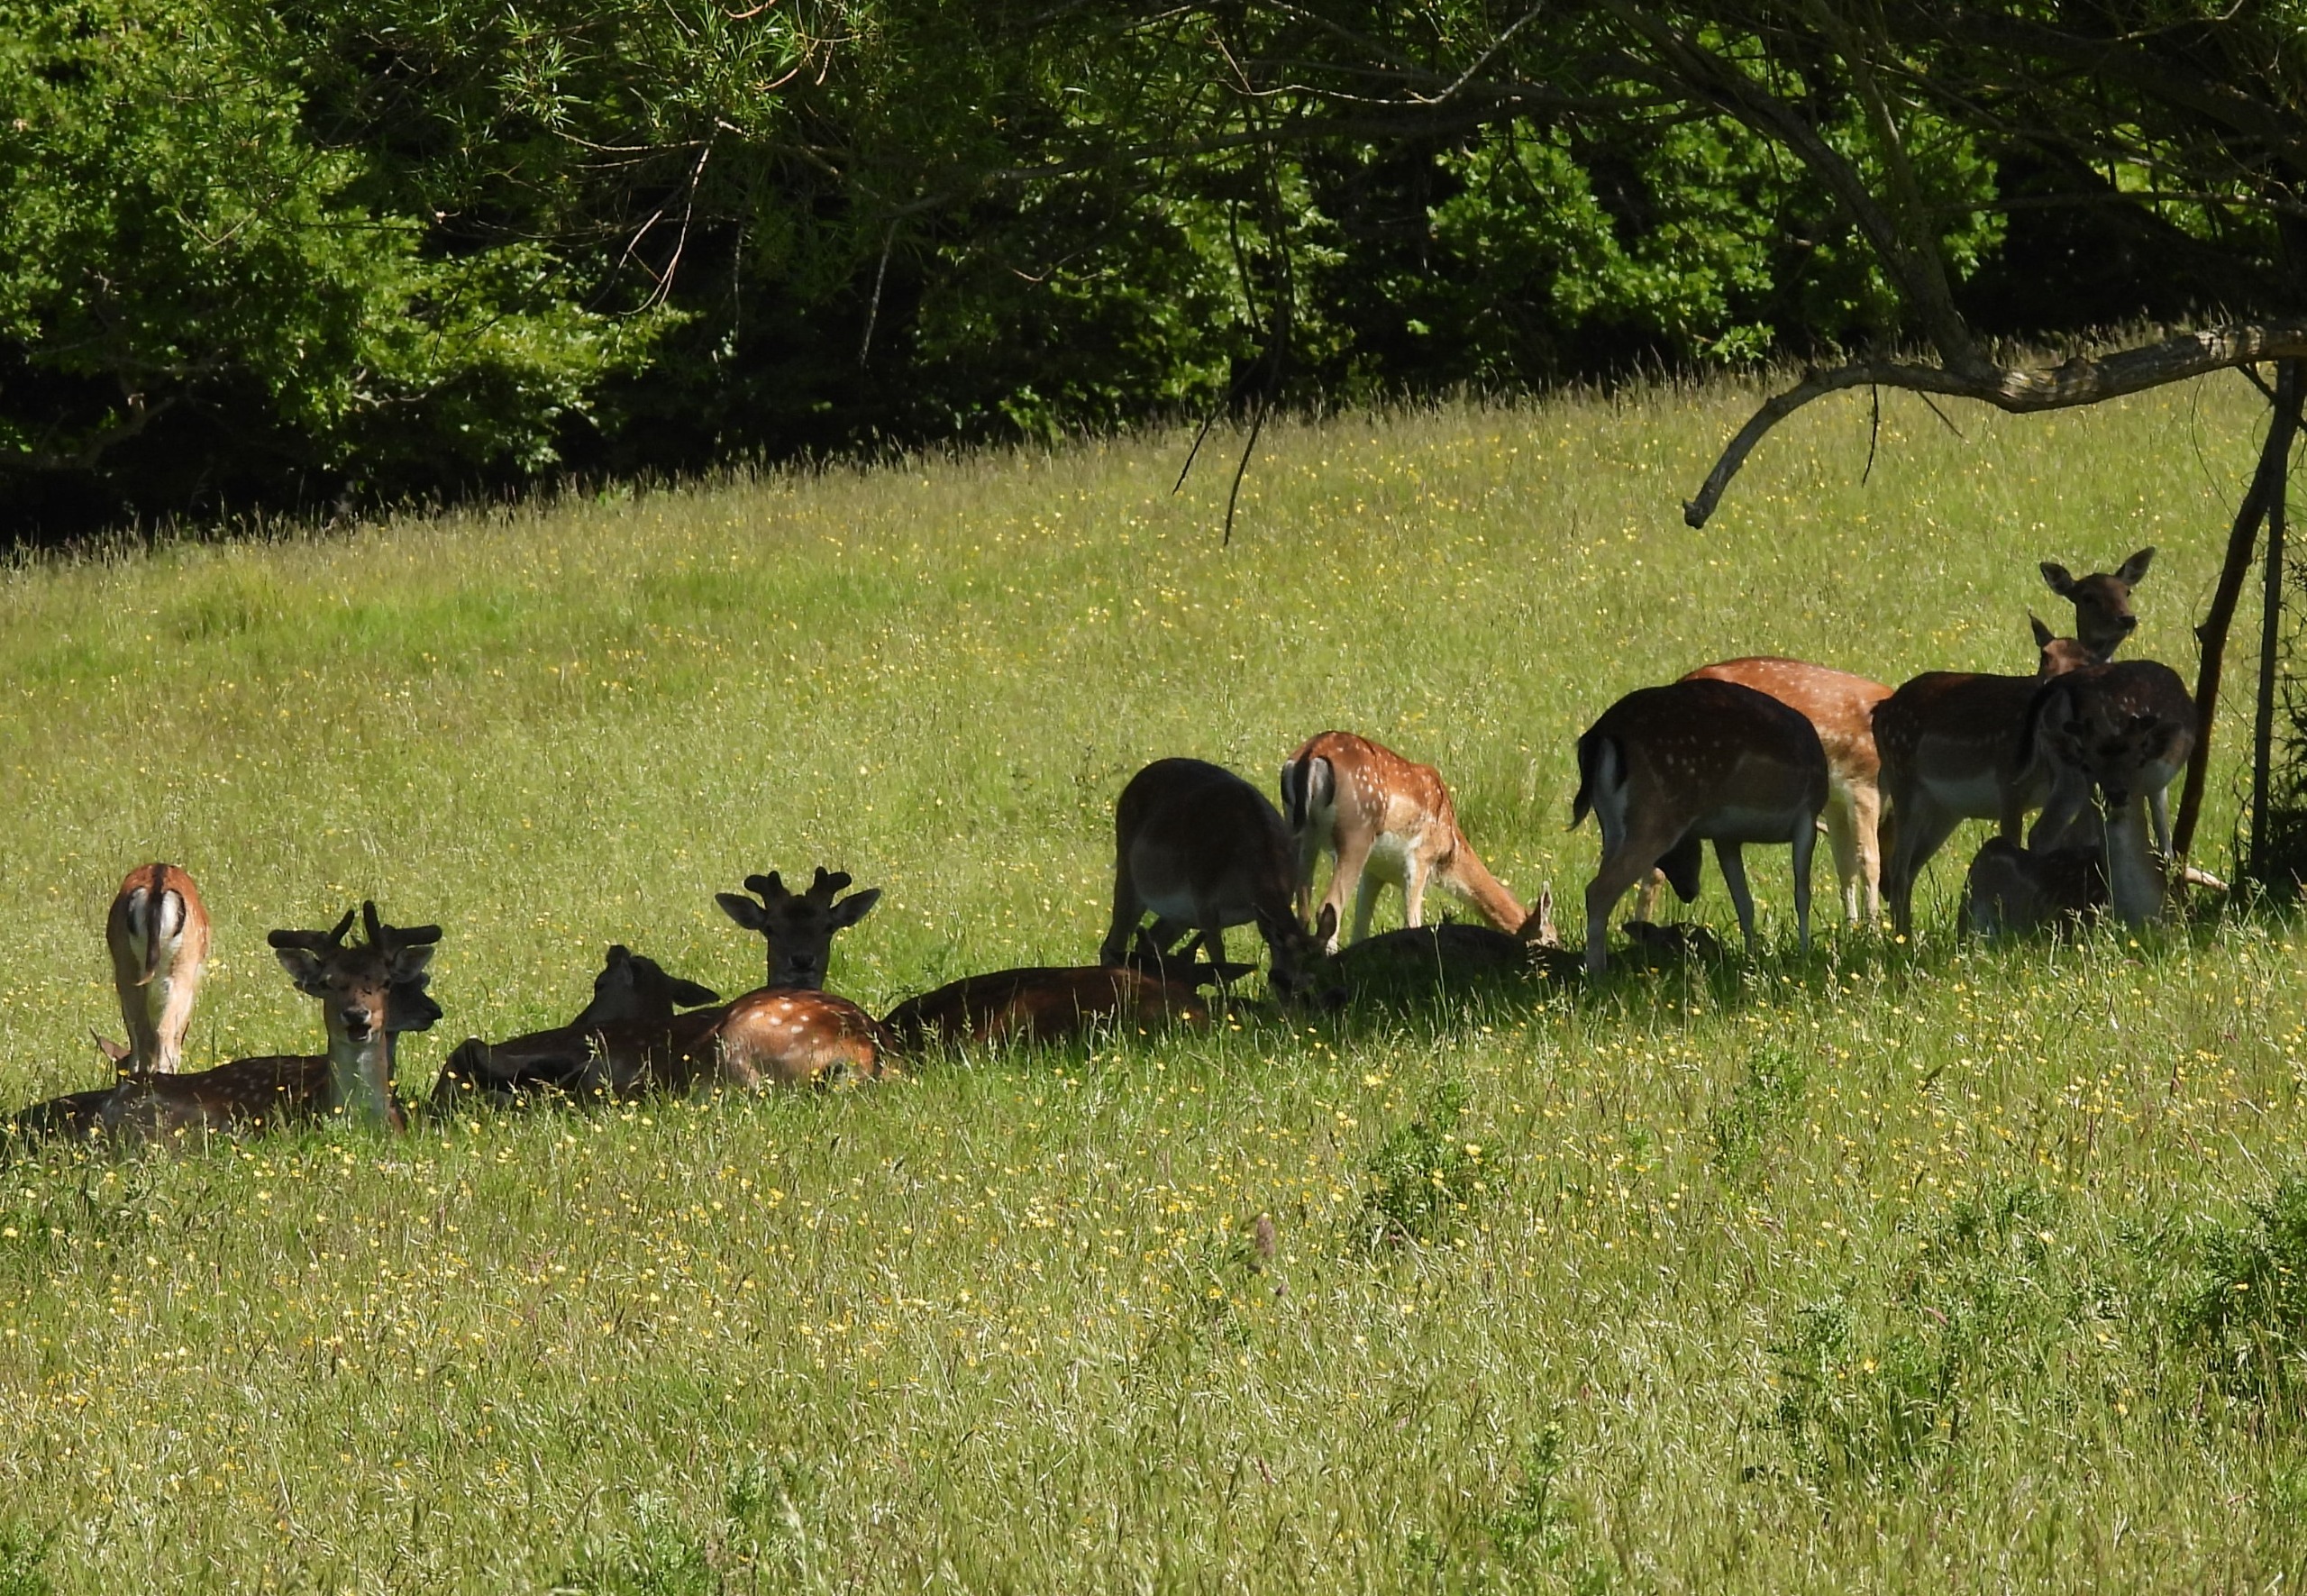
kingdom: Animalia
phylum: Chordata
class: Mammalia
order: Artiodactyla
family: Cervidae
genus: Dama
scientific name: Dama dama
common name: Dådyr
